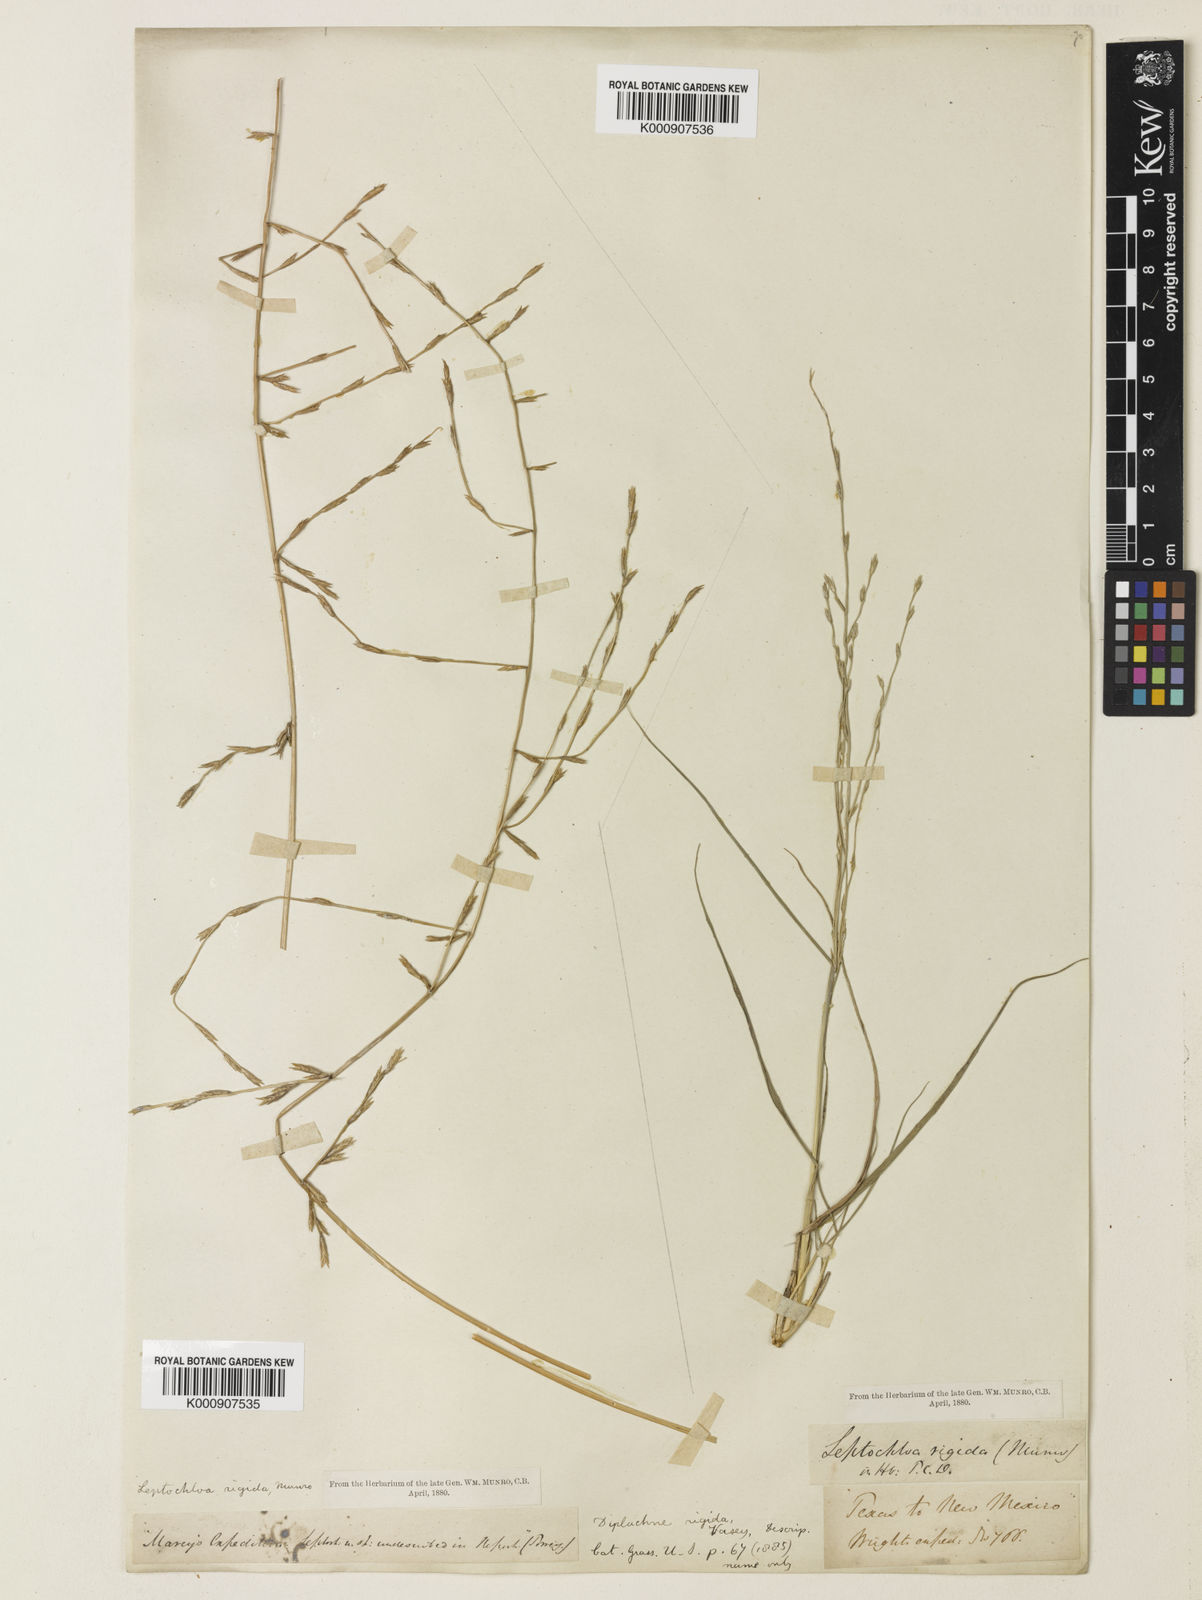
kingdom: Plantae
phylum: Tracheophyta
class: Liliopsida
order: Poales
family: Poaceae
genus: Eragrostis
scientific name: Eragrostis sessilispica
